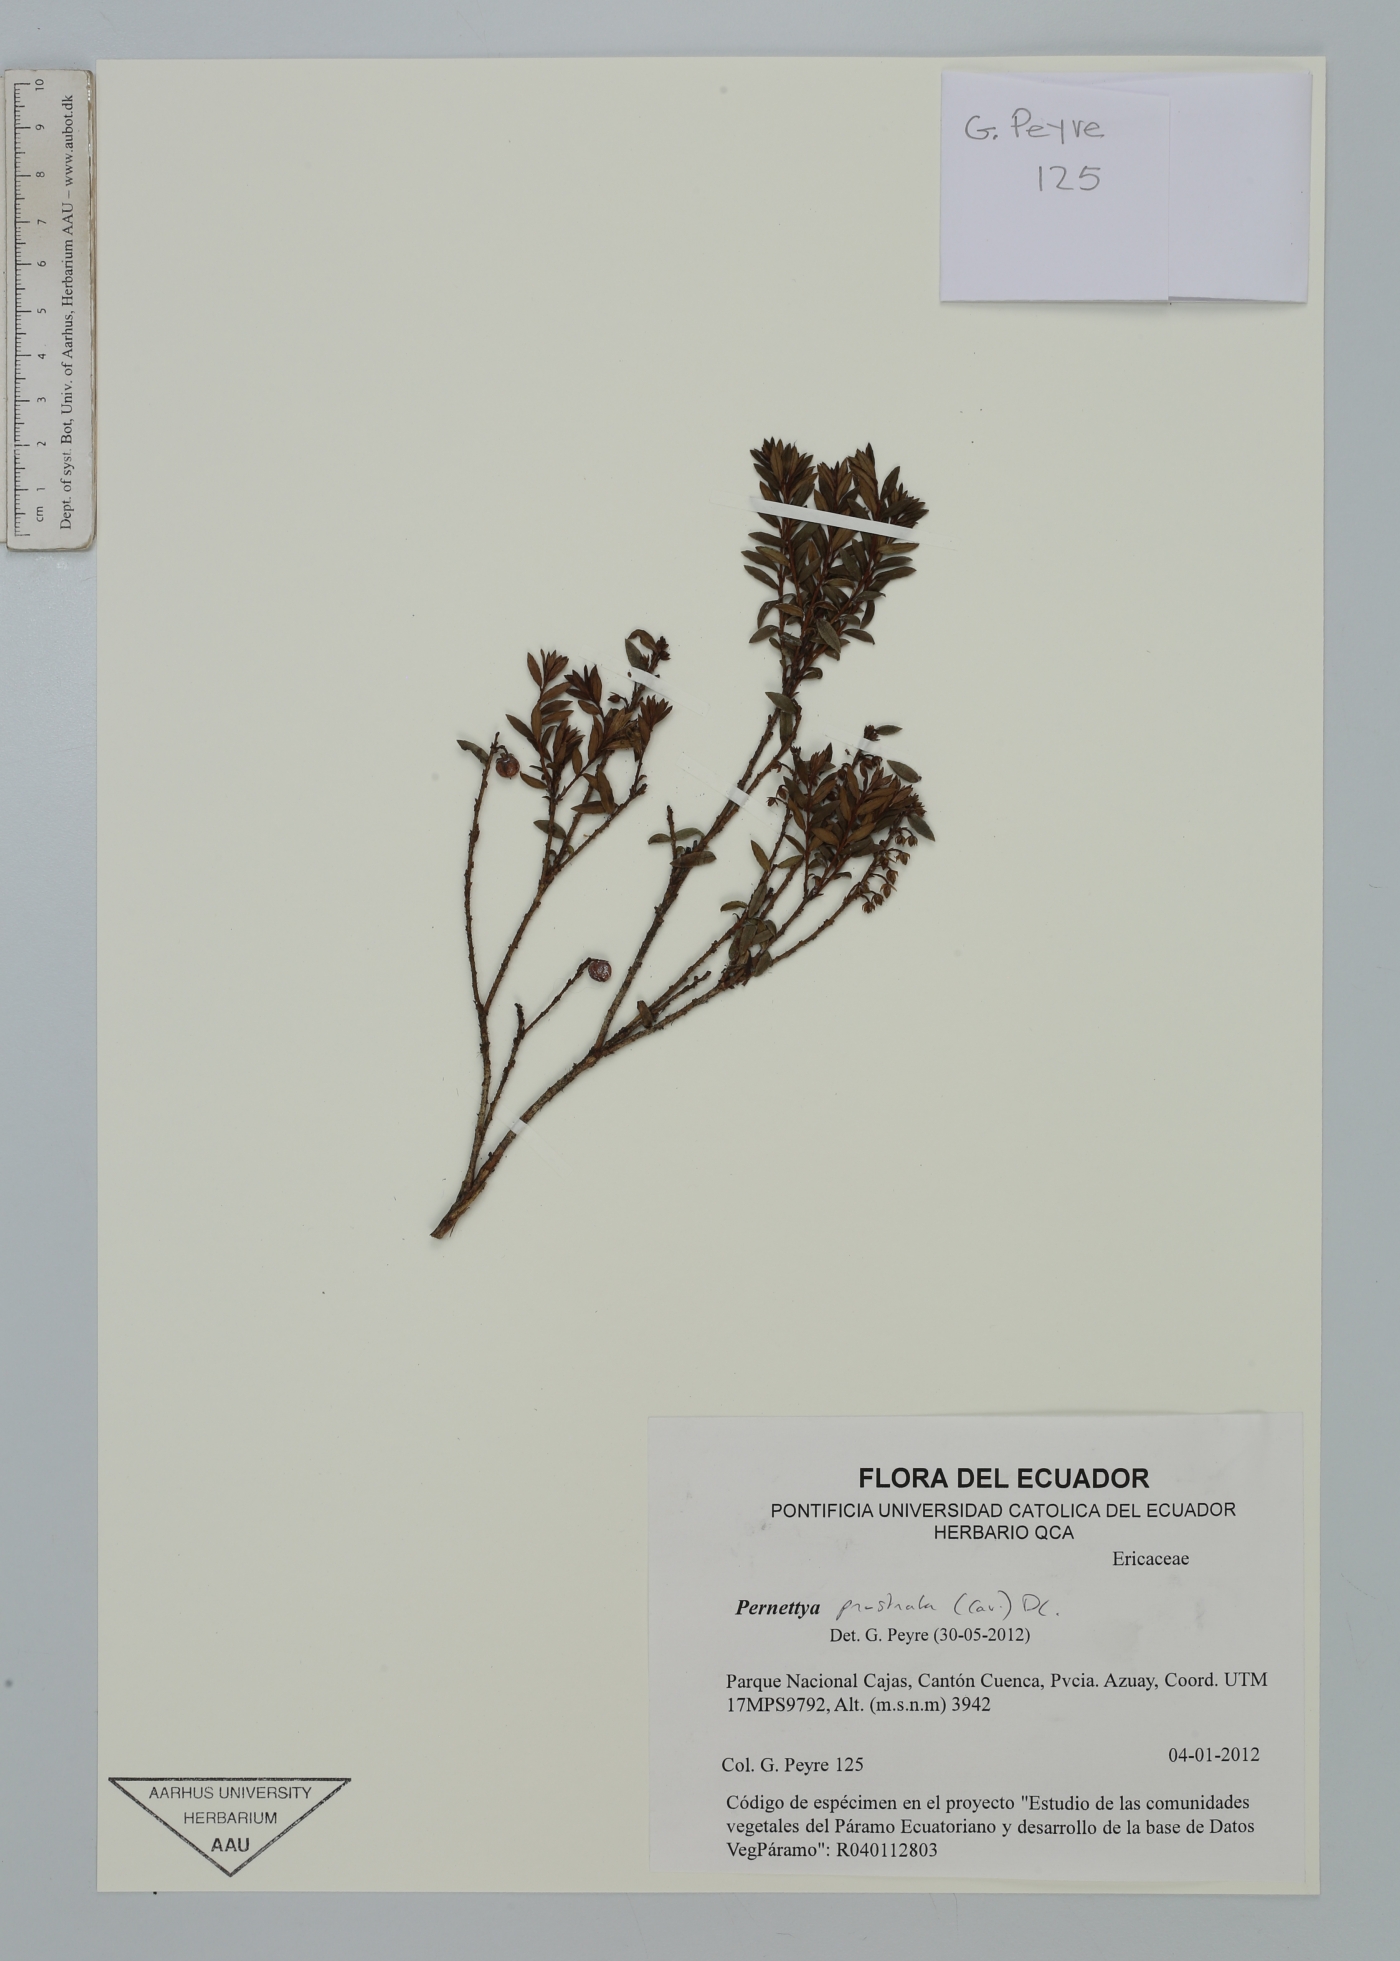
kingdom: Plantae
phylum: Tracheophyta
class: Magnoliopsida
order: Ericales
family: Ericaceae
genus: Gaultheria
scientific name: Gaultheria myrsinoides
